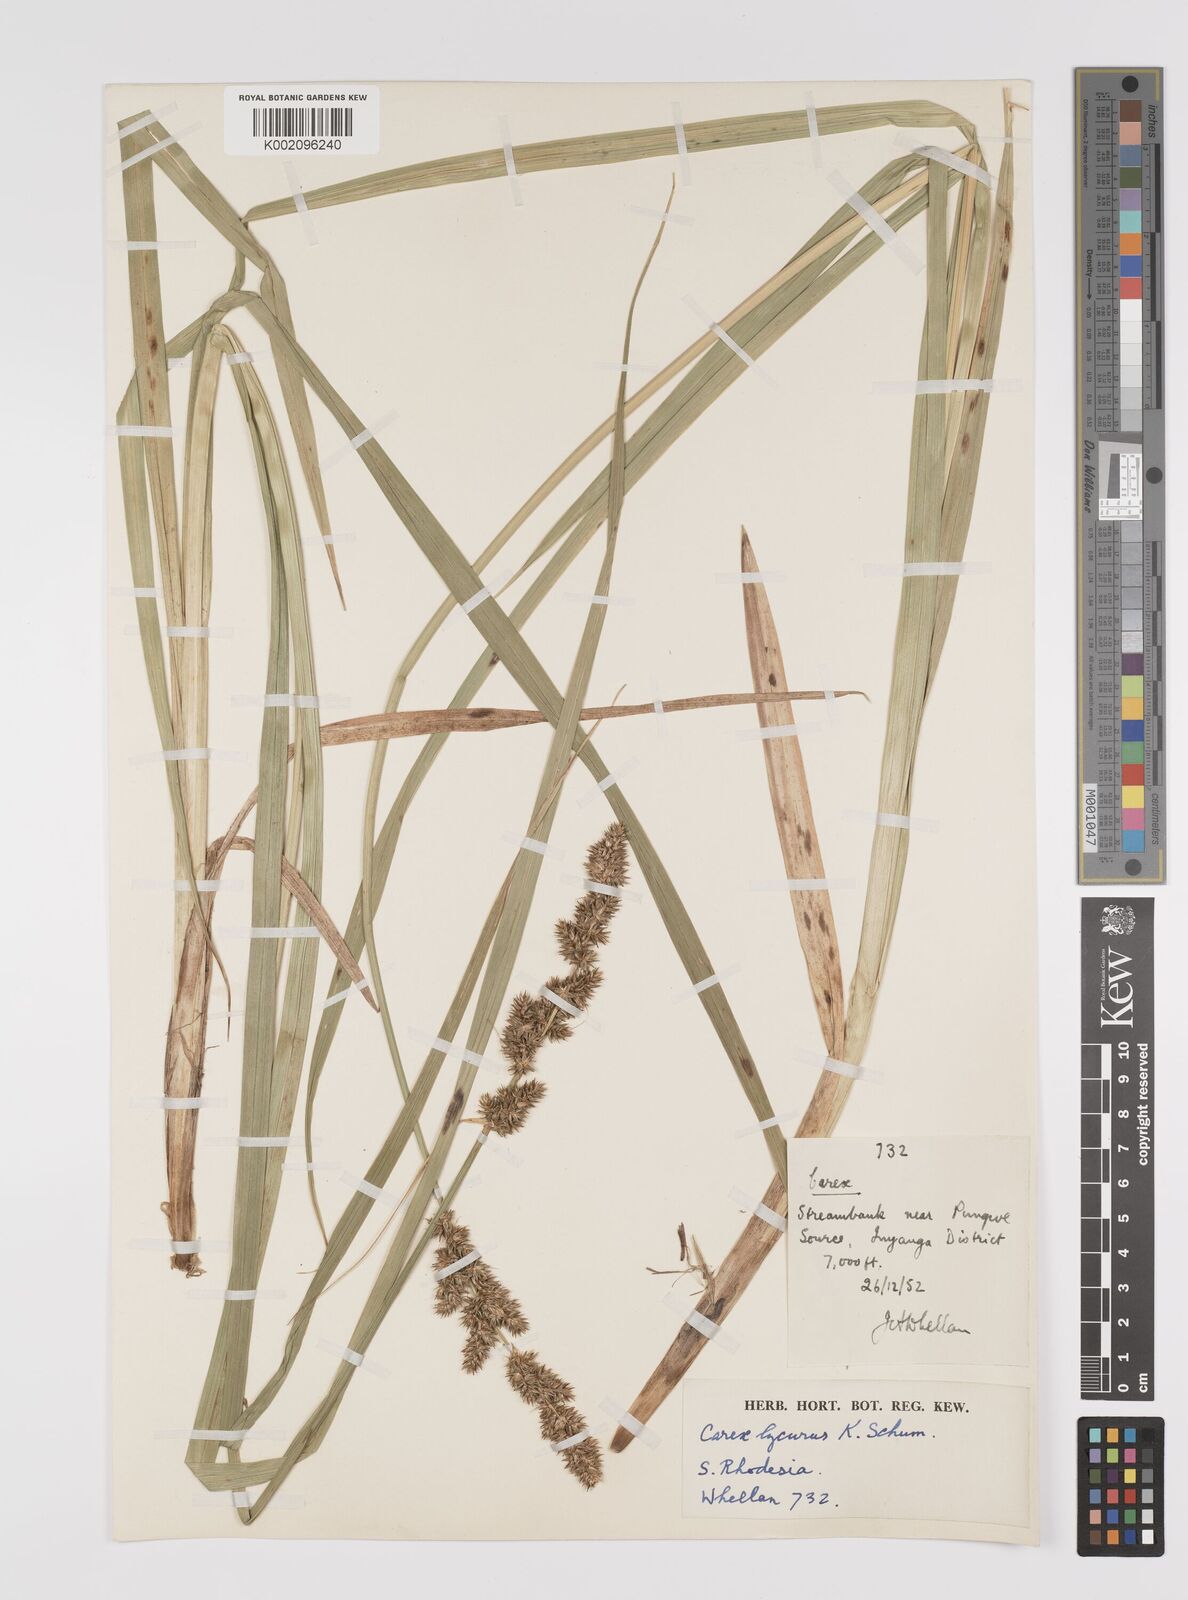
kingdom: Plantae
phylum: Tracheophyta
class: Liliopsida
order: Poales
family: Cyperaceae
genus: Carex
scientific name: Carex lycurus
